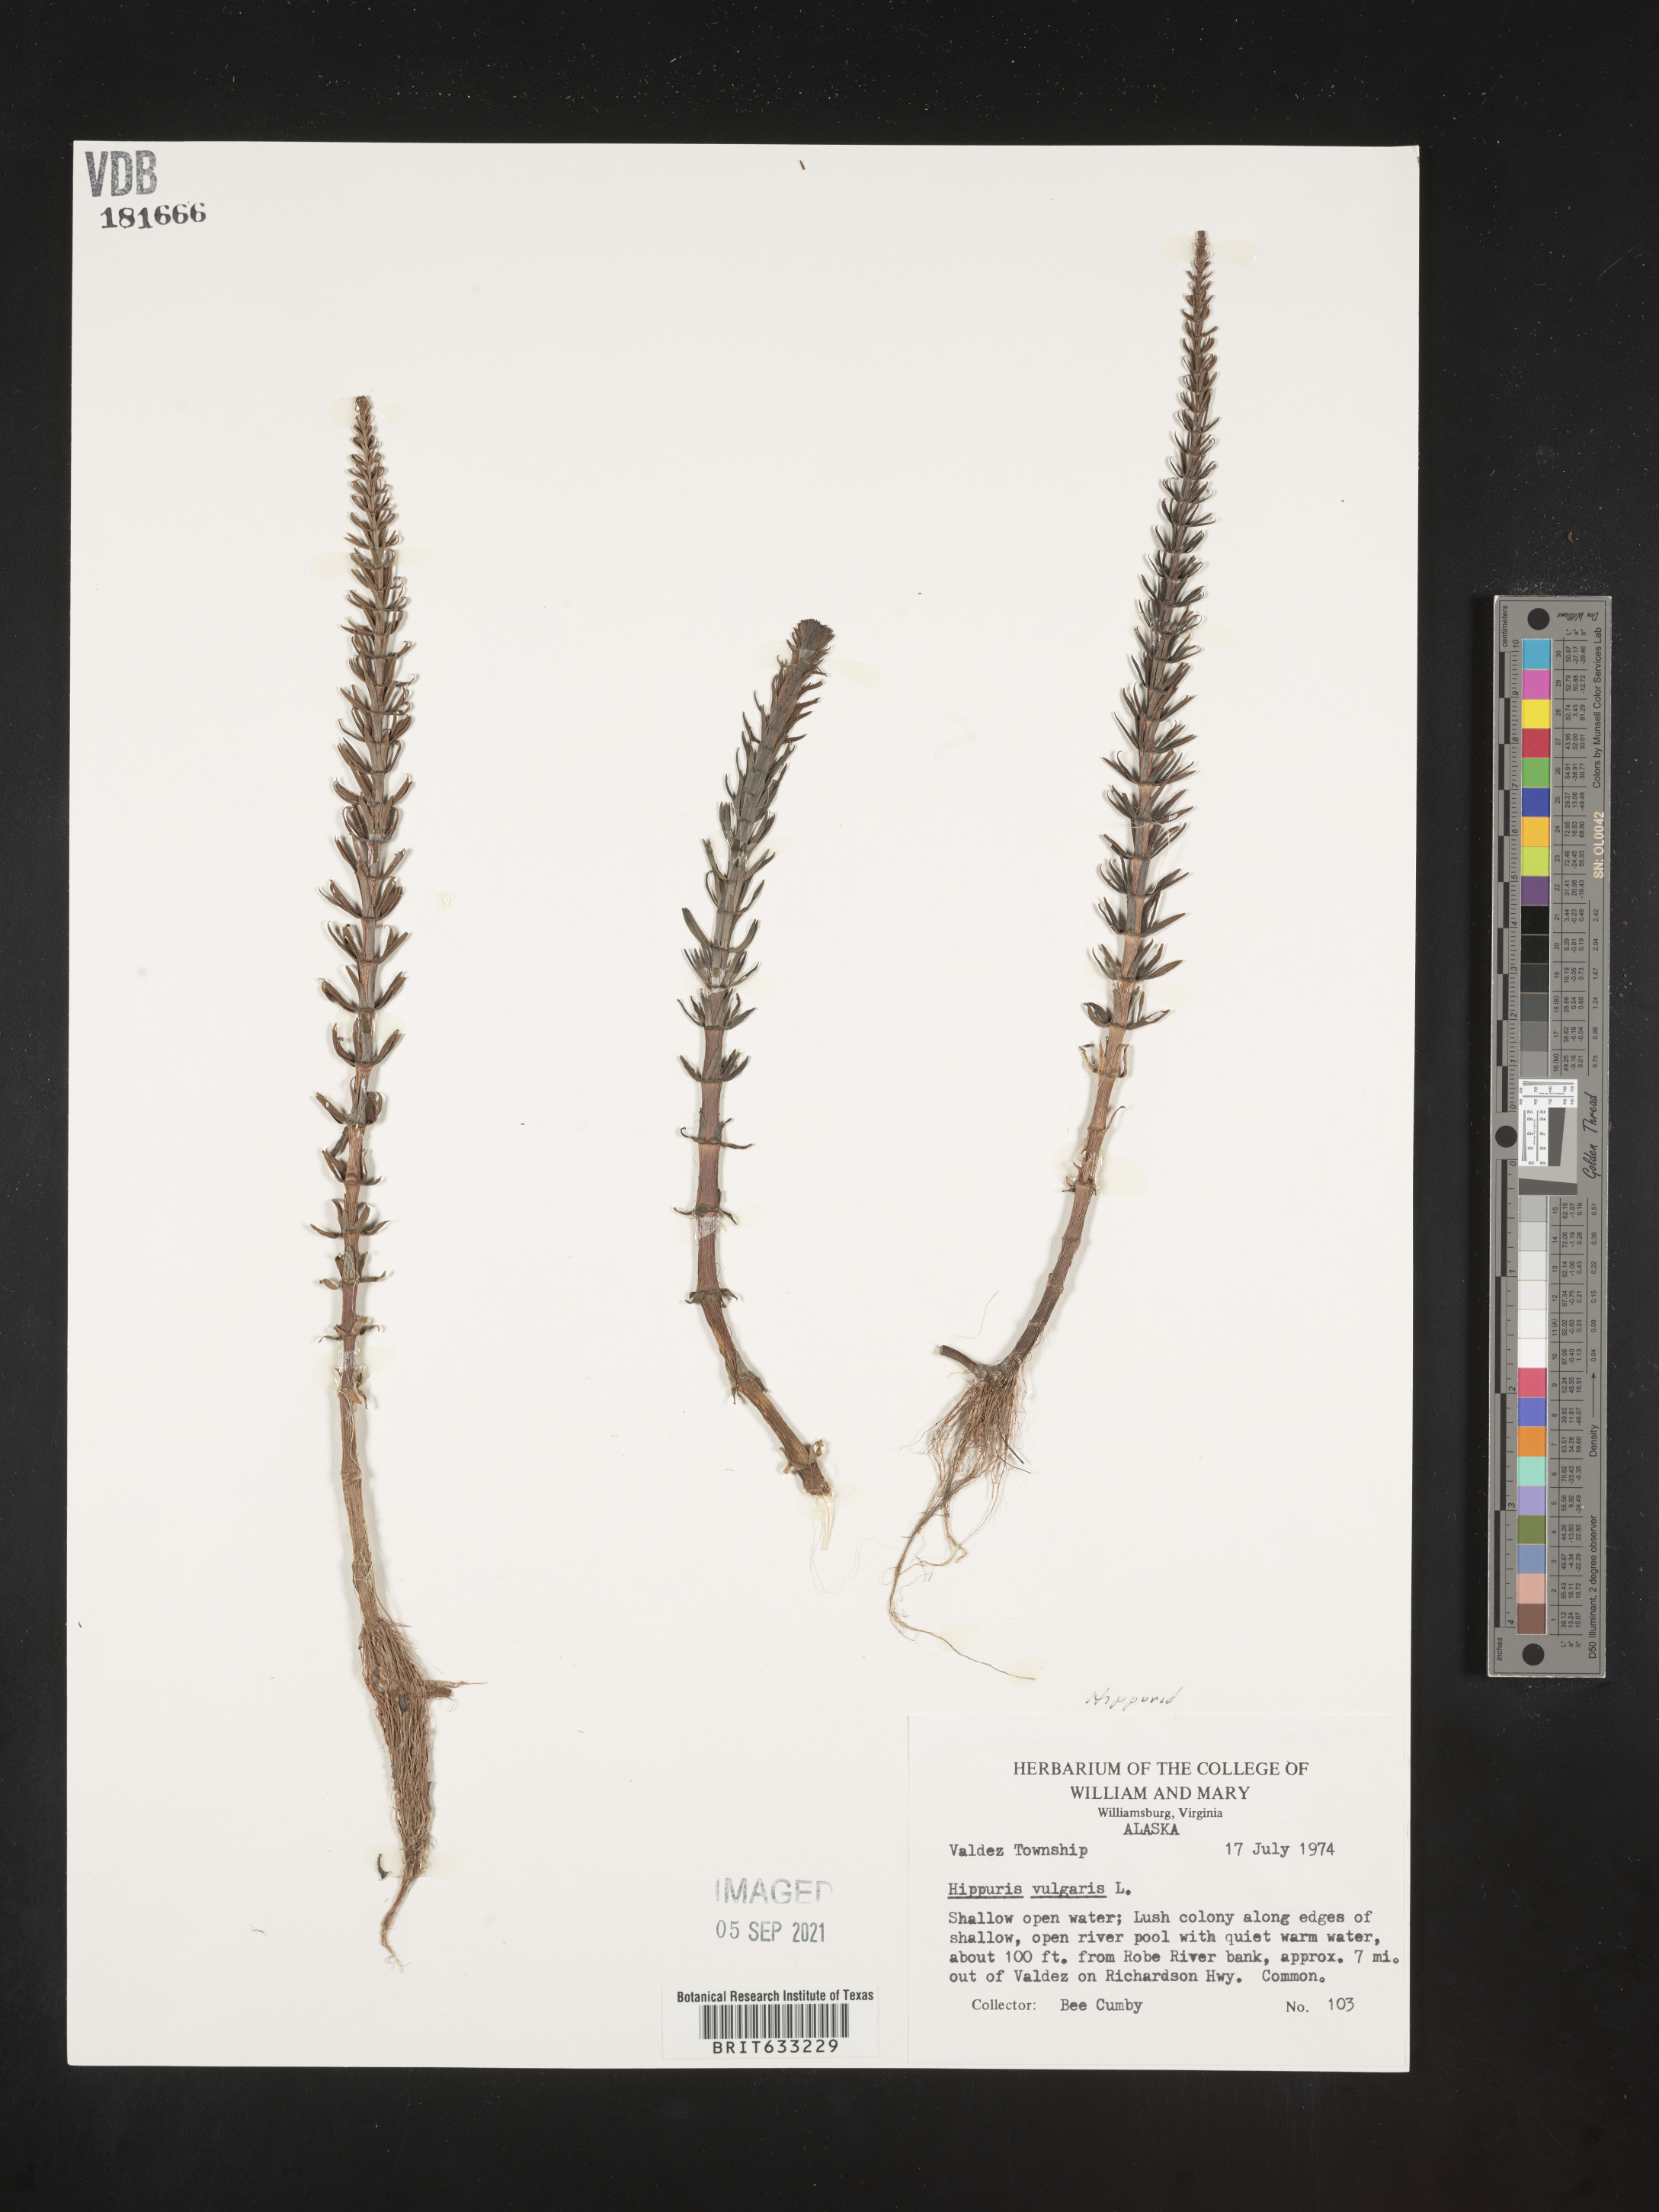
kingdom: Plantae
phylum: Tracheophyta
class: Magnoliopsida
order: Lamiales
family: Plantaginaceae
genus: Hippuris
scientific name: Hippuris
